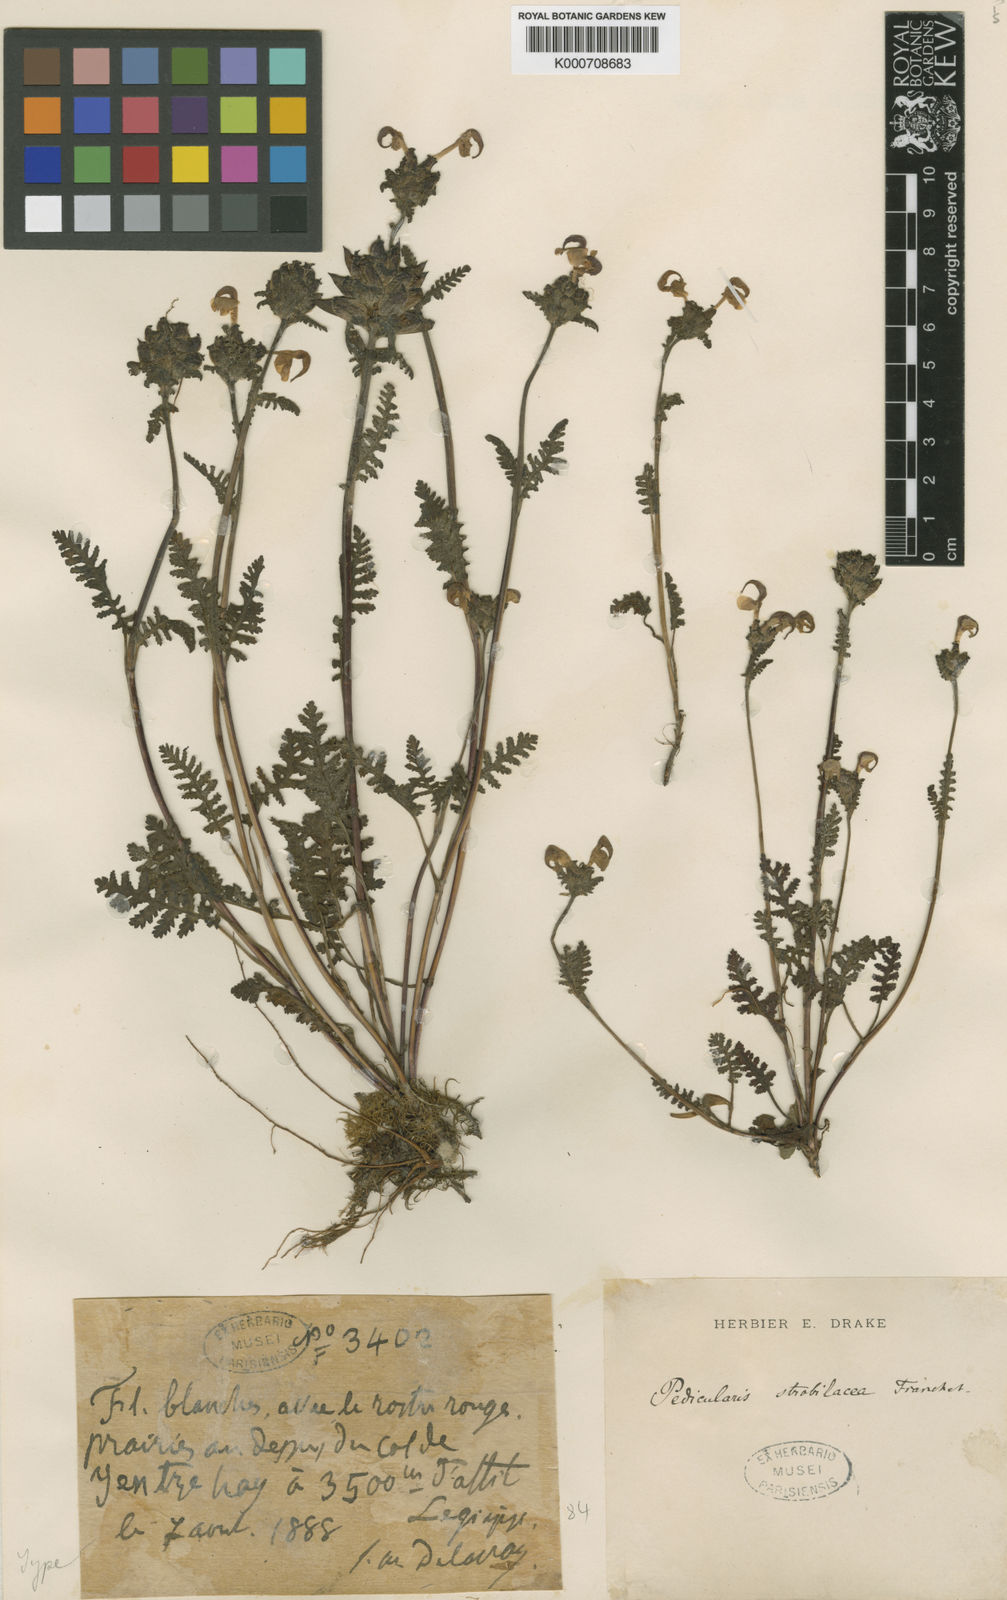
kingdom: Plantae
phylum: Tracheophyta
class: Magnoliopsida
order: Lamiales
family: Orobanchaceae
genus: Pedicularis
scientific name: Pedicularis
